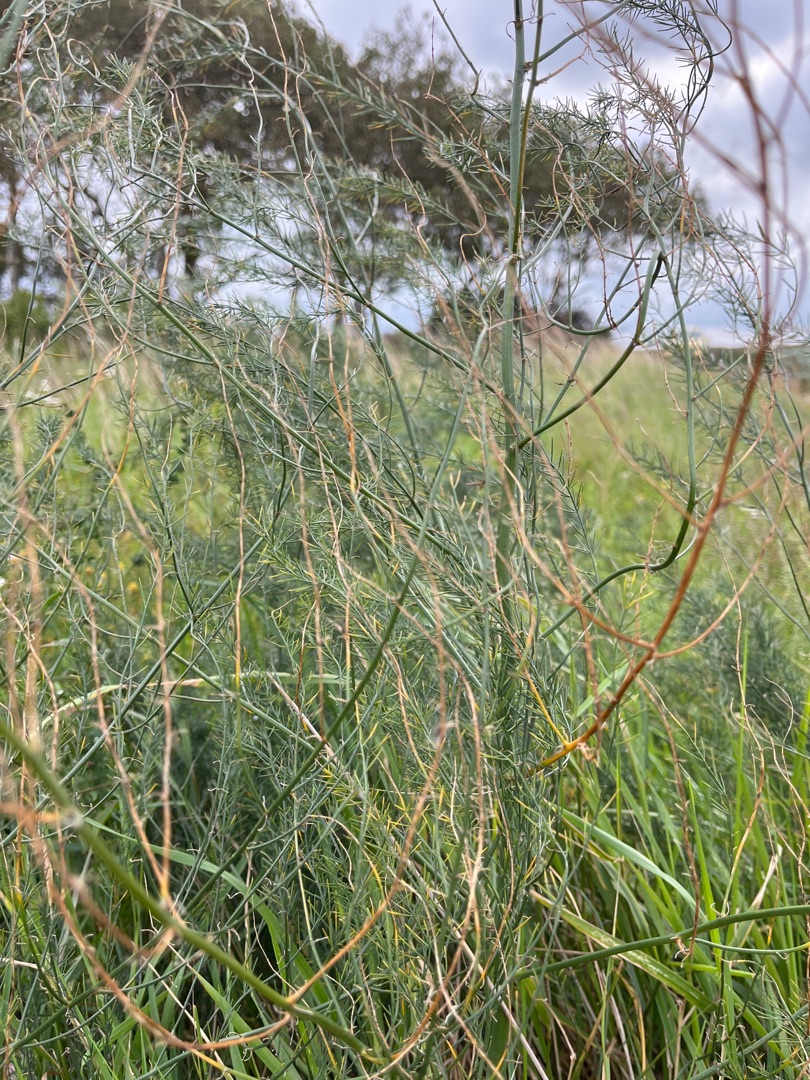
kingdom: Plantae
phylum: Tracheophyta
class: Liliopsida
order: Asparagales
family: Asparagaceae
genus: Asparagus
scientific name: Asparagus officinalis
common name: Asparges
